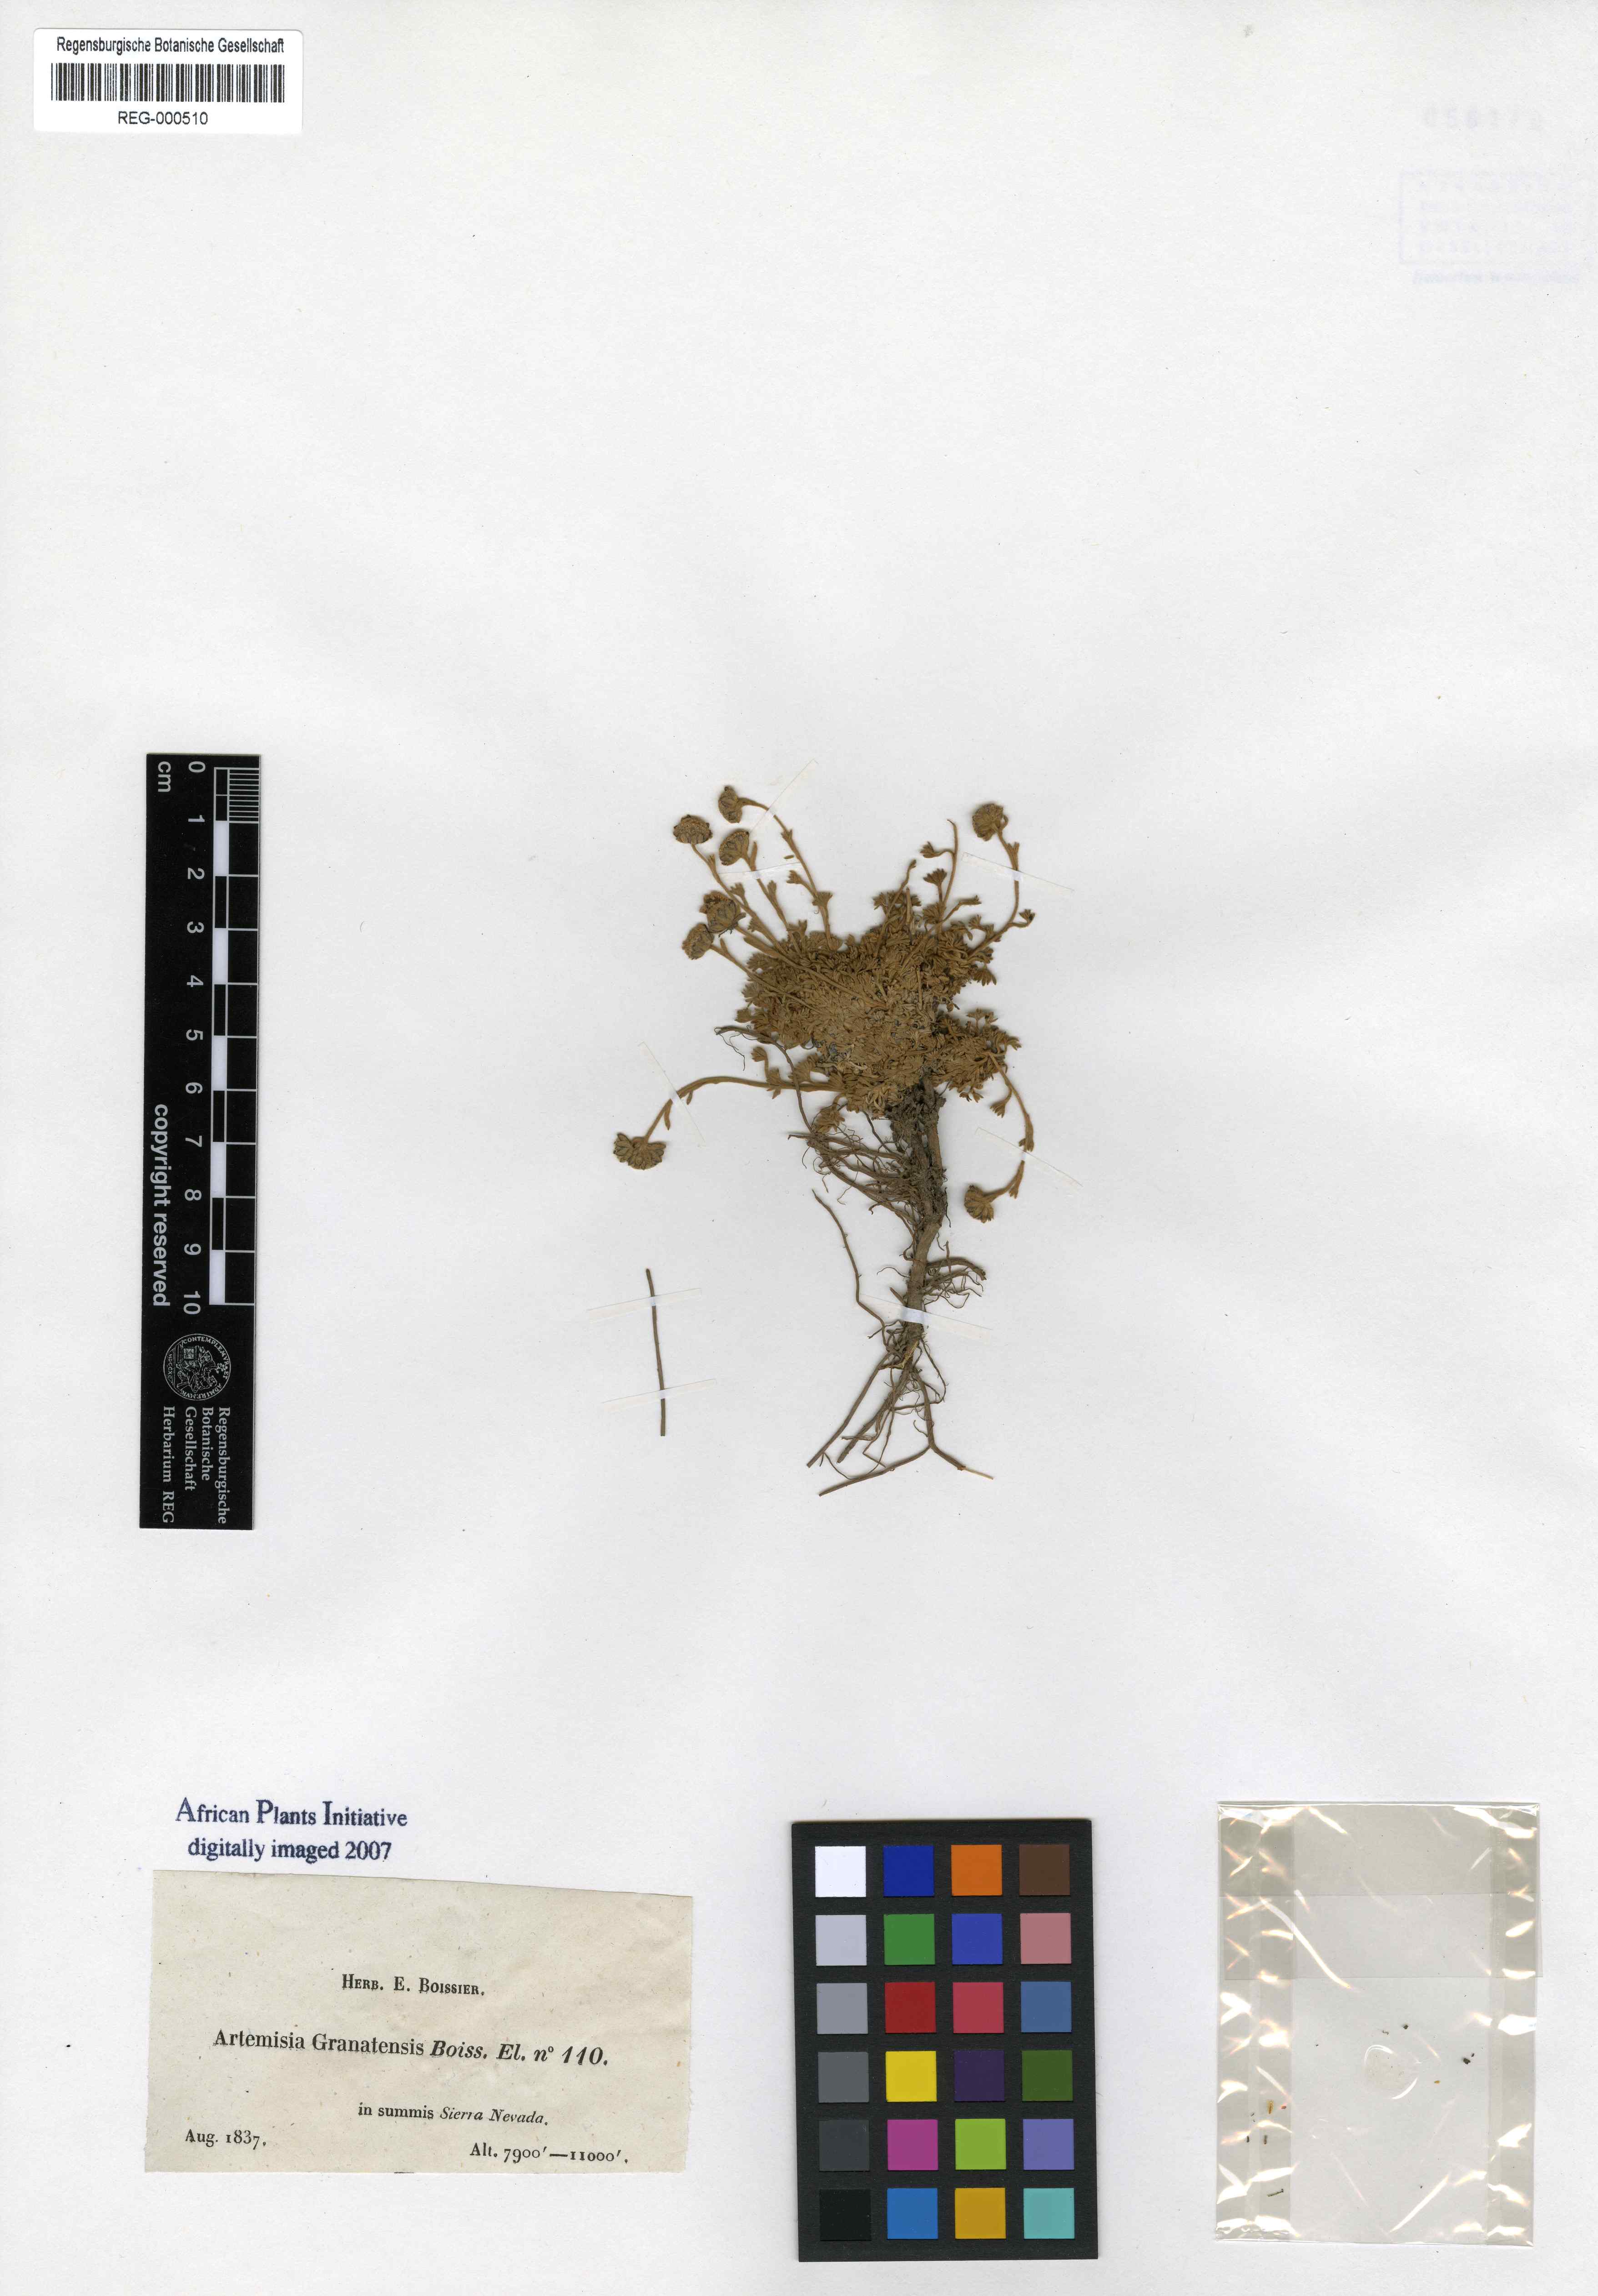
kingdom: Plantae
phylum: Tracheophyta
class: Magnoliopsida
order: Asterales
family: Asteraceae
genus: Artemisia
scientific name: Artemisia granatensis
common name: Royal chamomile
